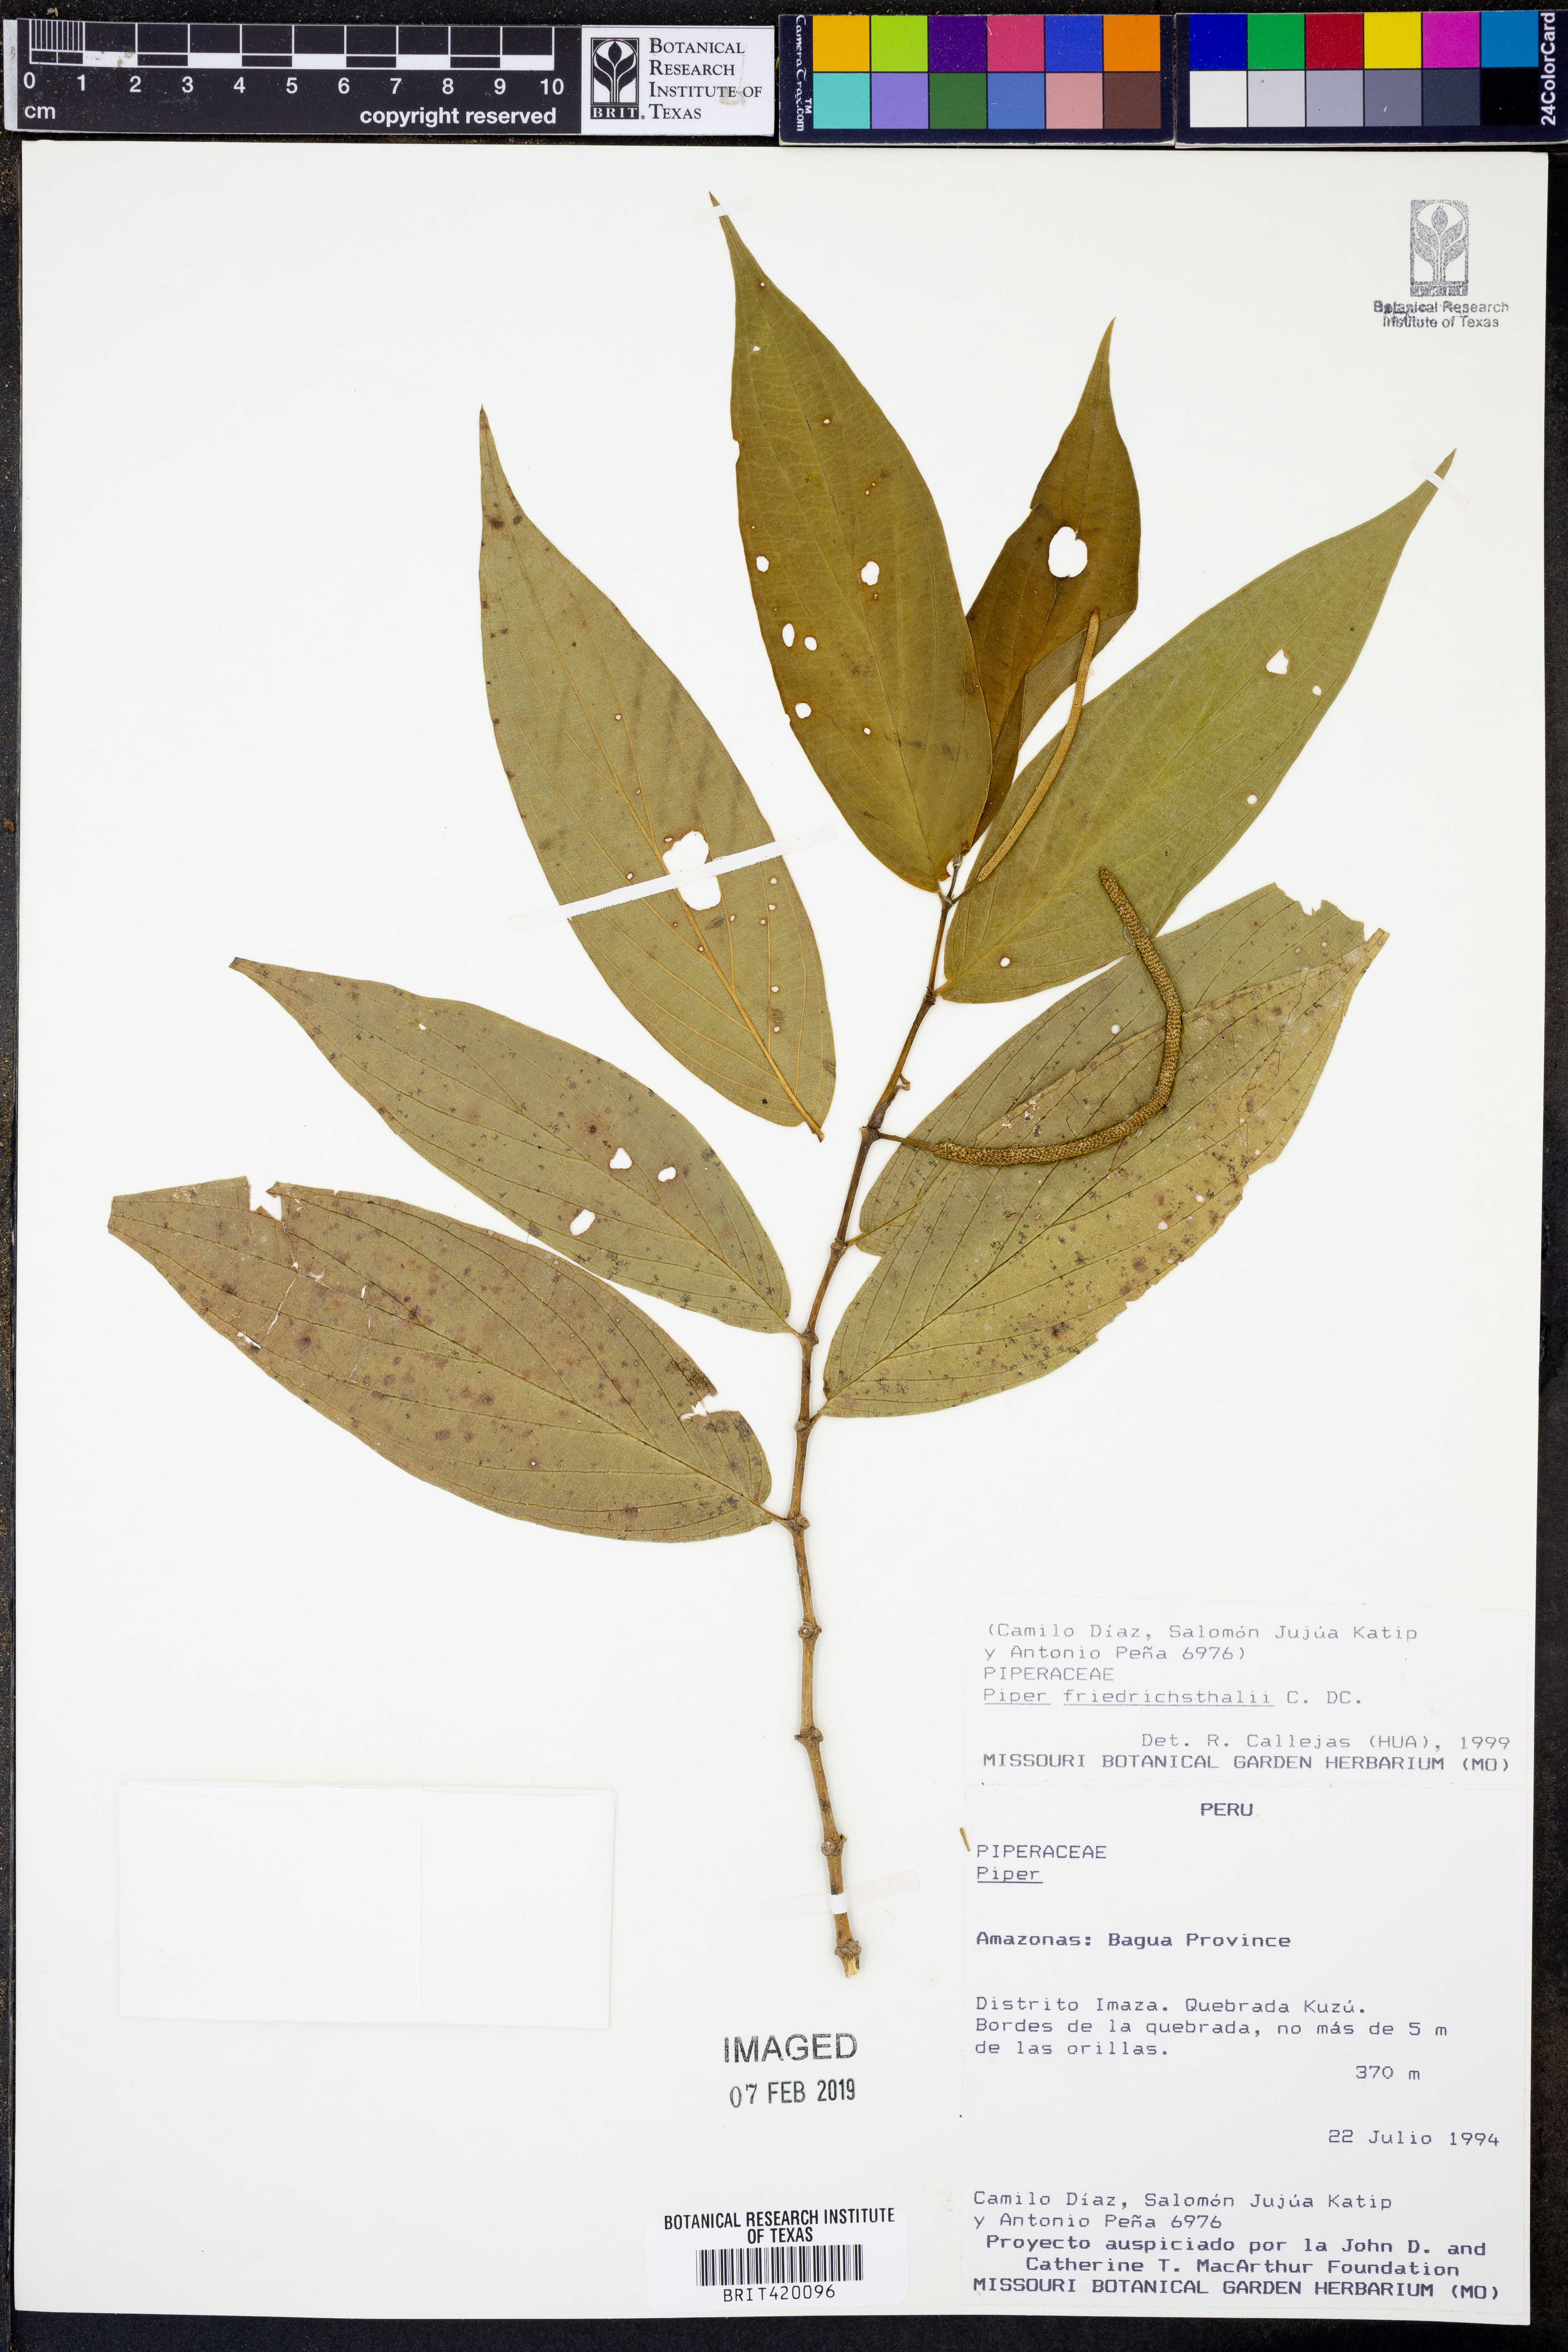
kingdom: Plantae
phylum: Tracheophyta
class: Magnoliopsida
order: Piperales
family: Piperaceae
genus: Piper
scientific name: Piper friedrichsthalii
